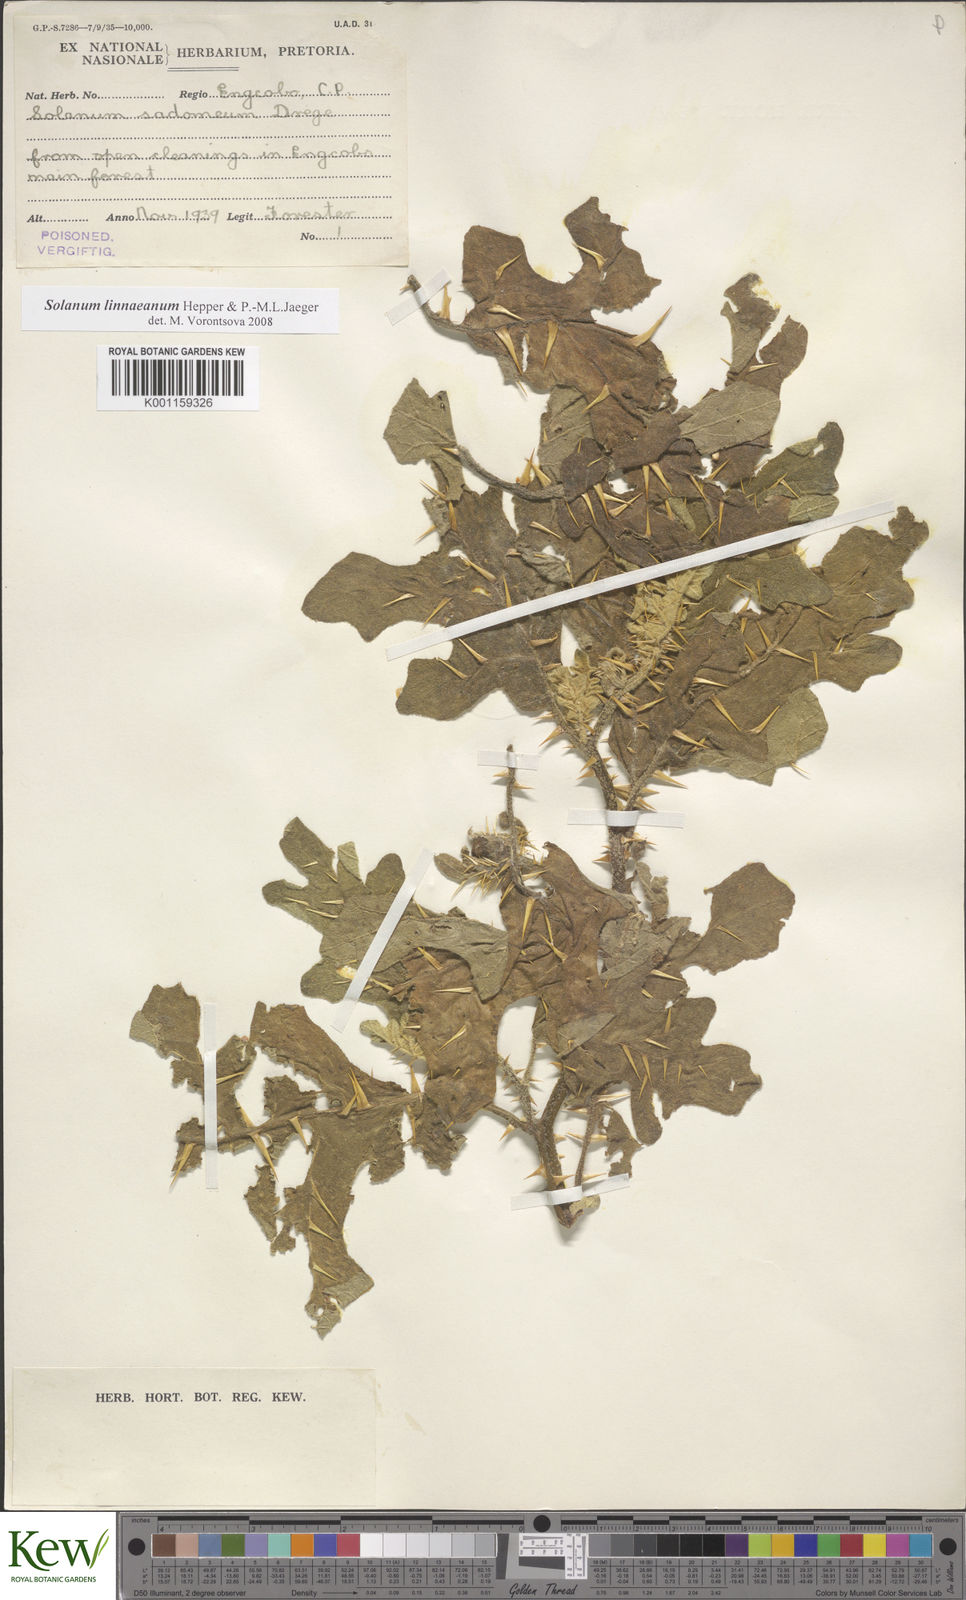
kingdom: Plantae
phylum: Tracheophyta
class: Magnoliopsida
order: Solanales
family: Solanaceae
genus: Solanum
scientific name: Solanum linnaeanum
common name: Nightshade
